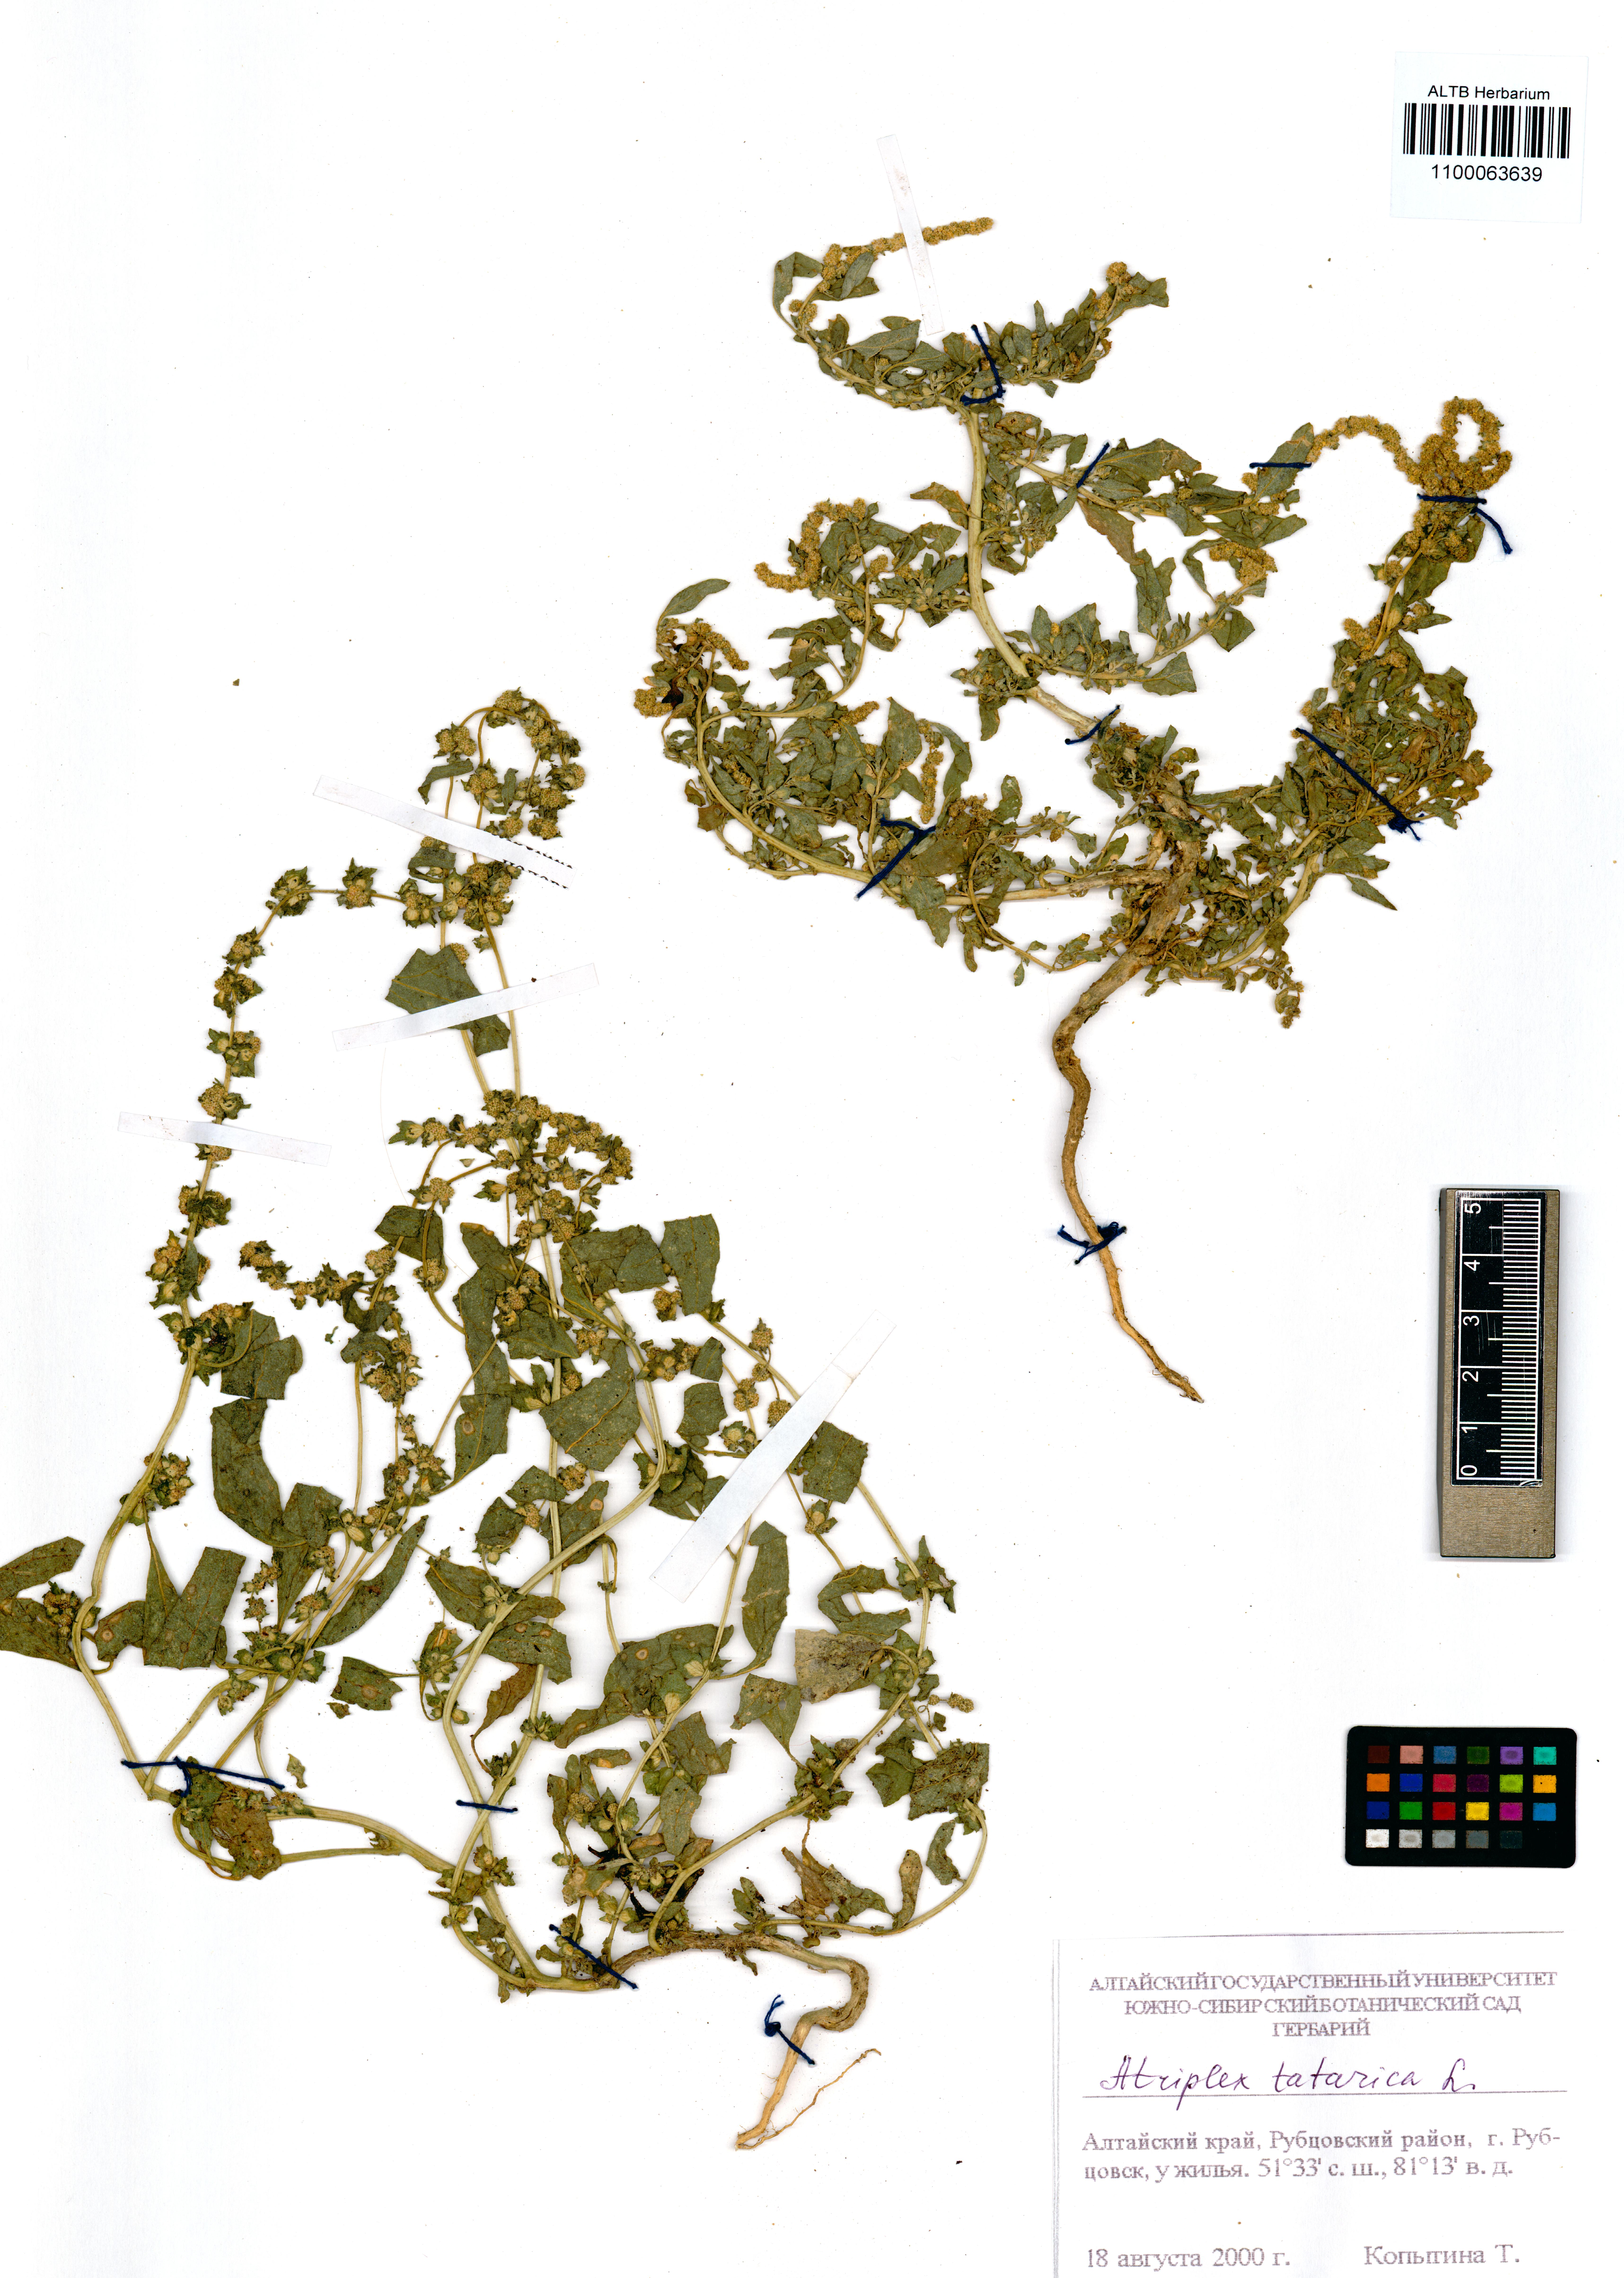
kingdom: Plantae
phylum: Tracheophyta
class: Magnoliopsida
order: Caryophyllales
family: Amaranthaceae
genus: Atriplex
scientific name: Atriplex tatarica
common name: Tatarian orache
